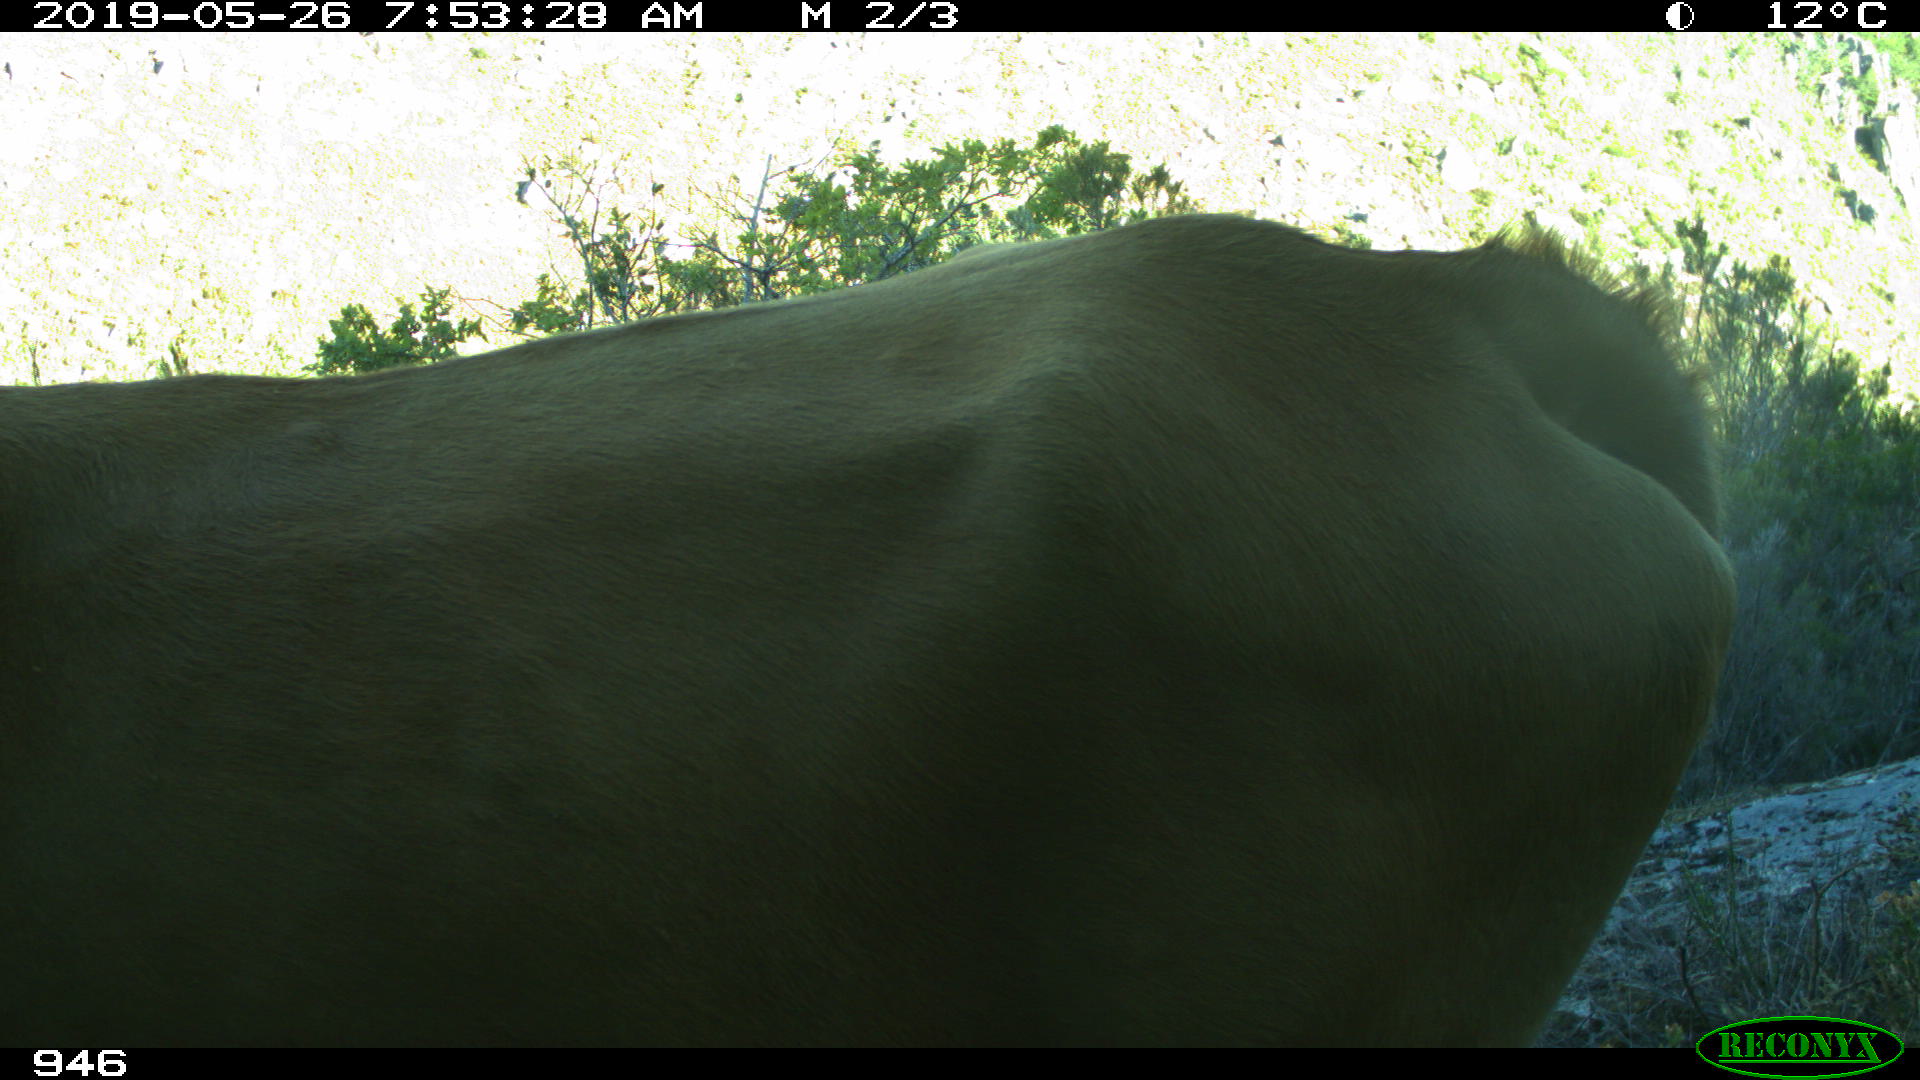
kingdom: Animalia
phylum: Chordata
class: Mammalia
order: Artiodactyla
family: Bovidae
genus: Bos
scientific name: Bos taurus
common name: Domesticated cattle
